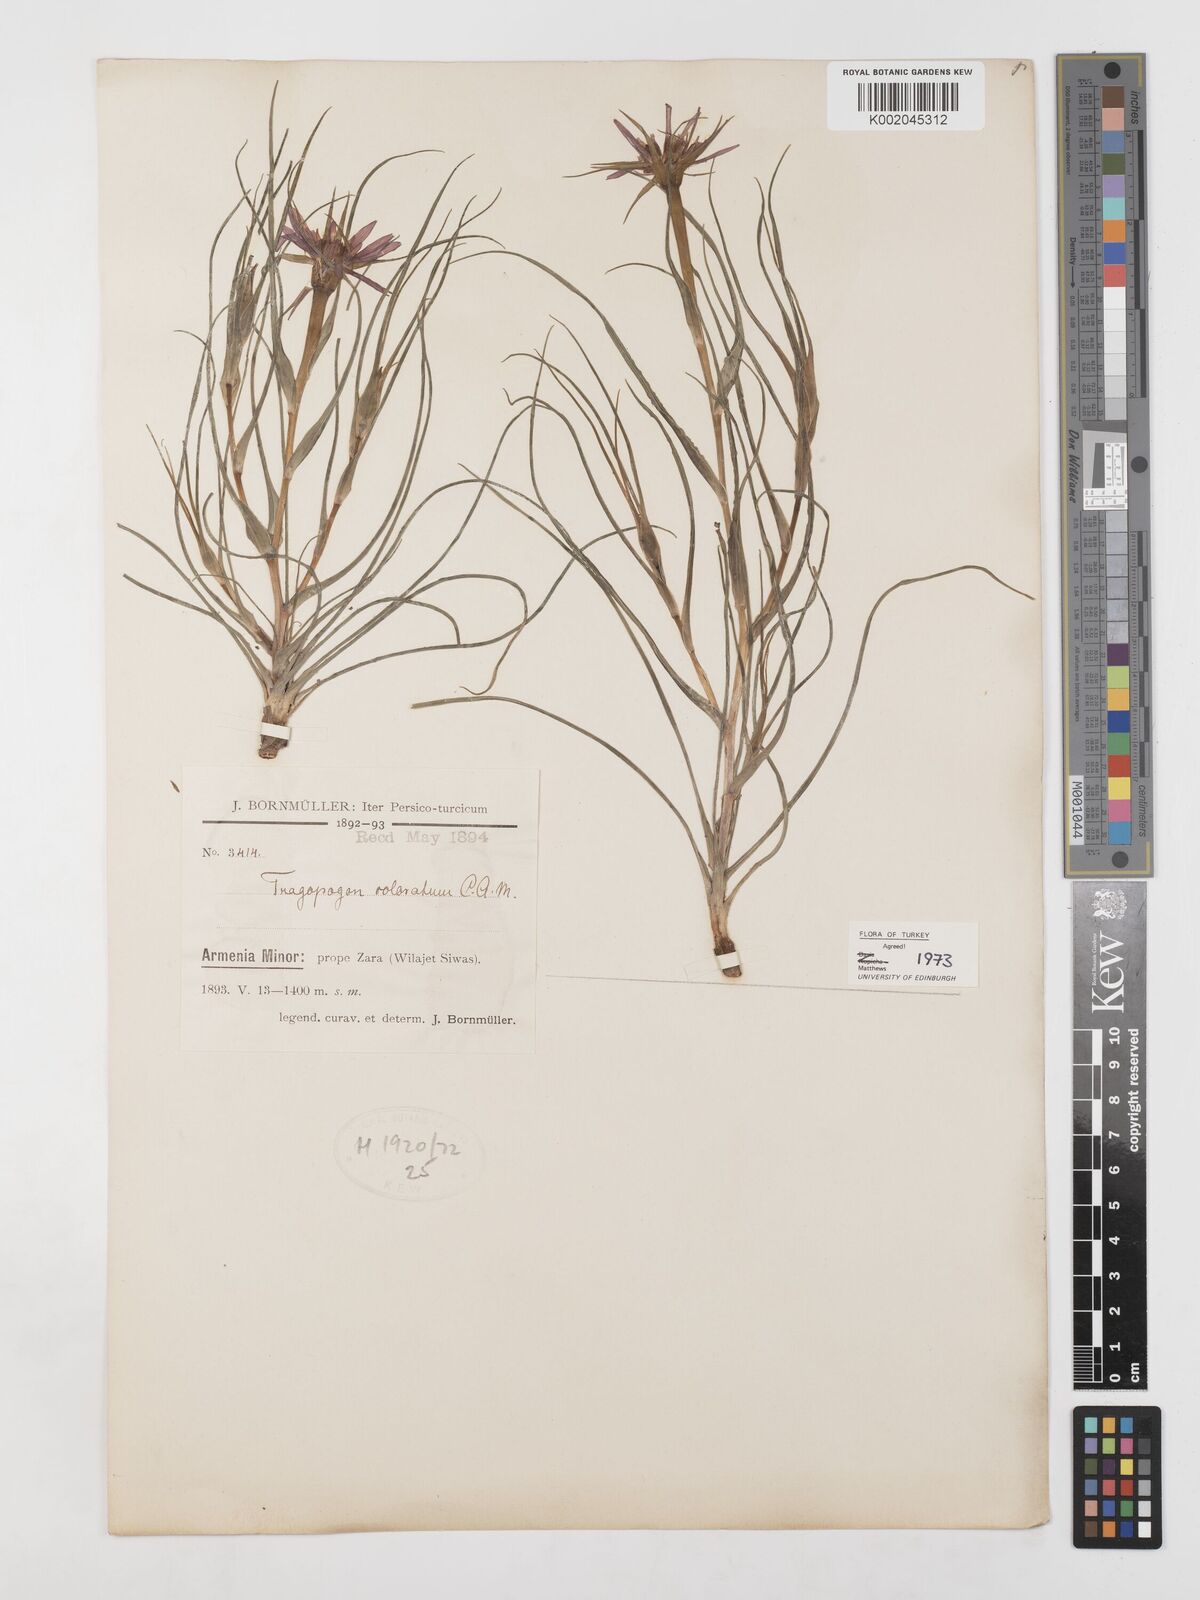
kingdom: Plantae
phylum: Tracheophyta
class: Magnoliopsida
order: Asterales
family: Asteraceae
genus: Tragopogon
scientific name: Tragopogon coloratus
